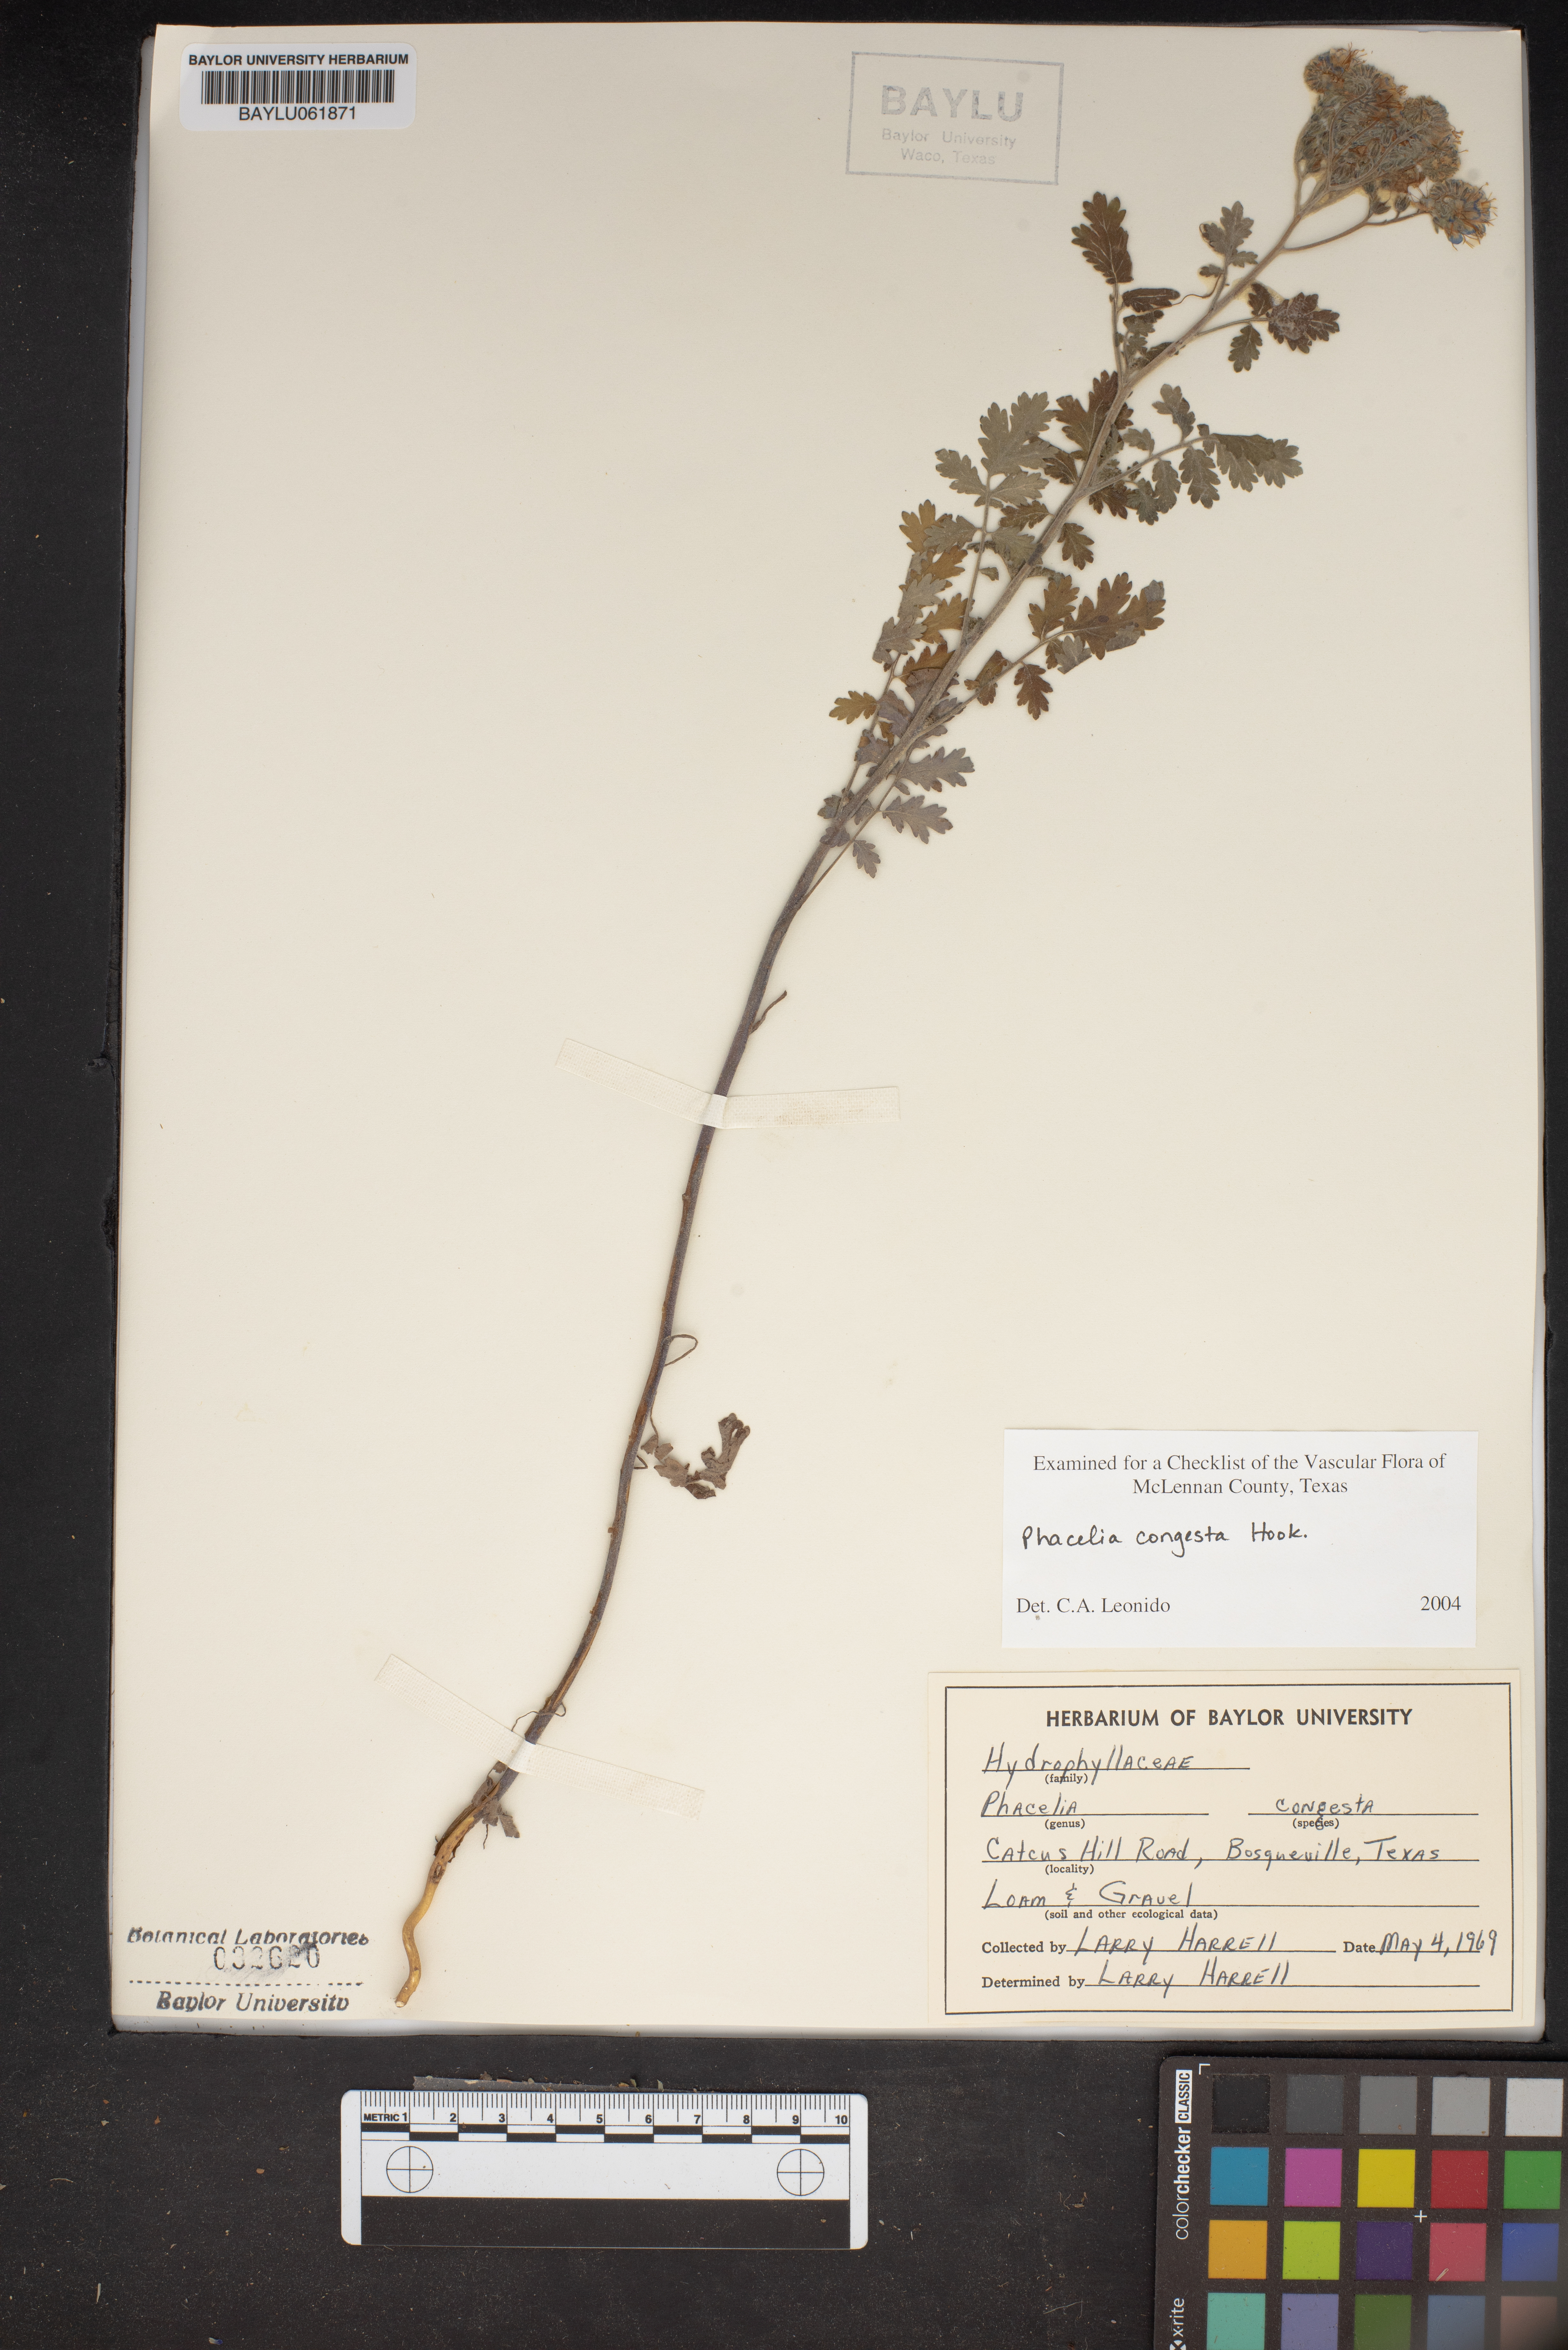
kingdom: Plantae
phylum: Tracheophyta
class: Magnoliopsida
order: Boraginales
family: Hydrophyllaceae
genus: Phacelia
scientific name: Phacelia congesta
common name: Blue curls
